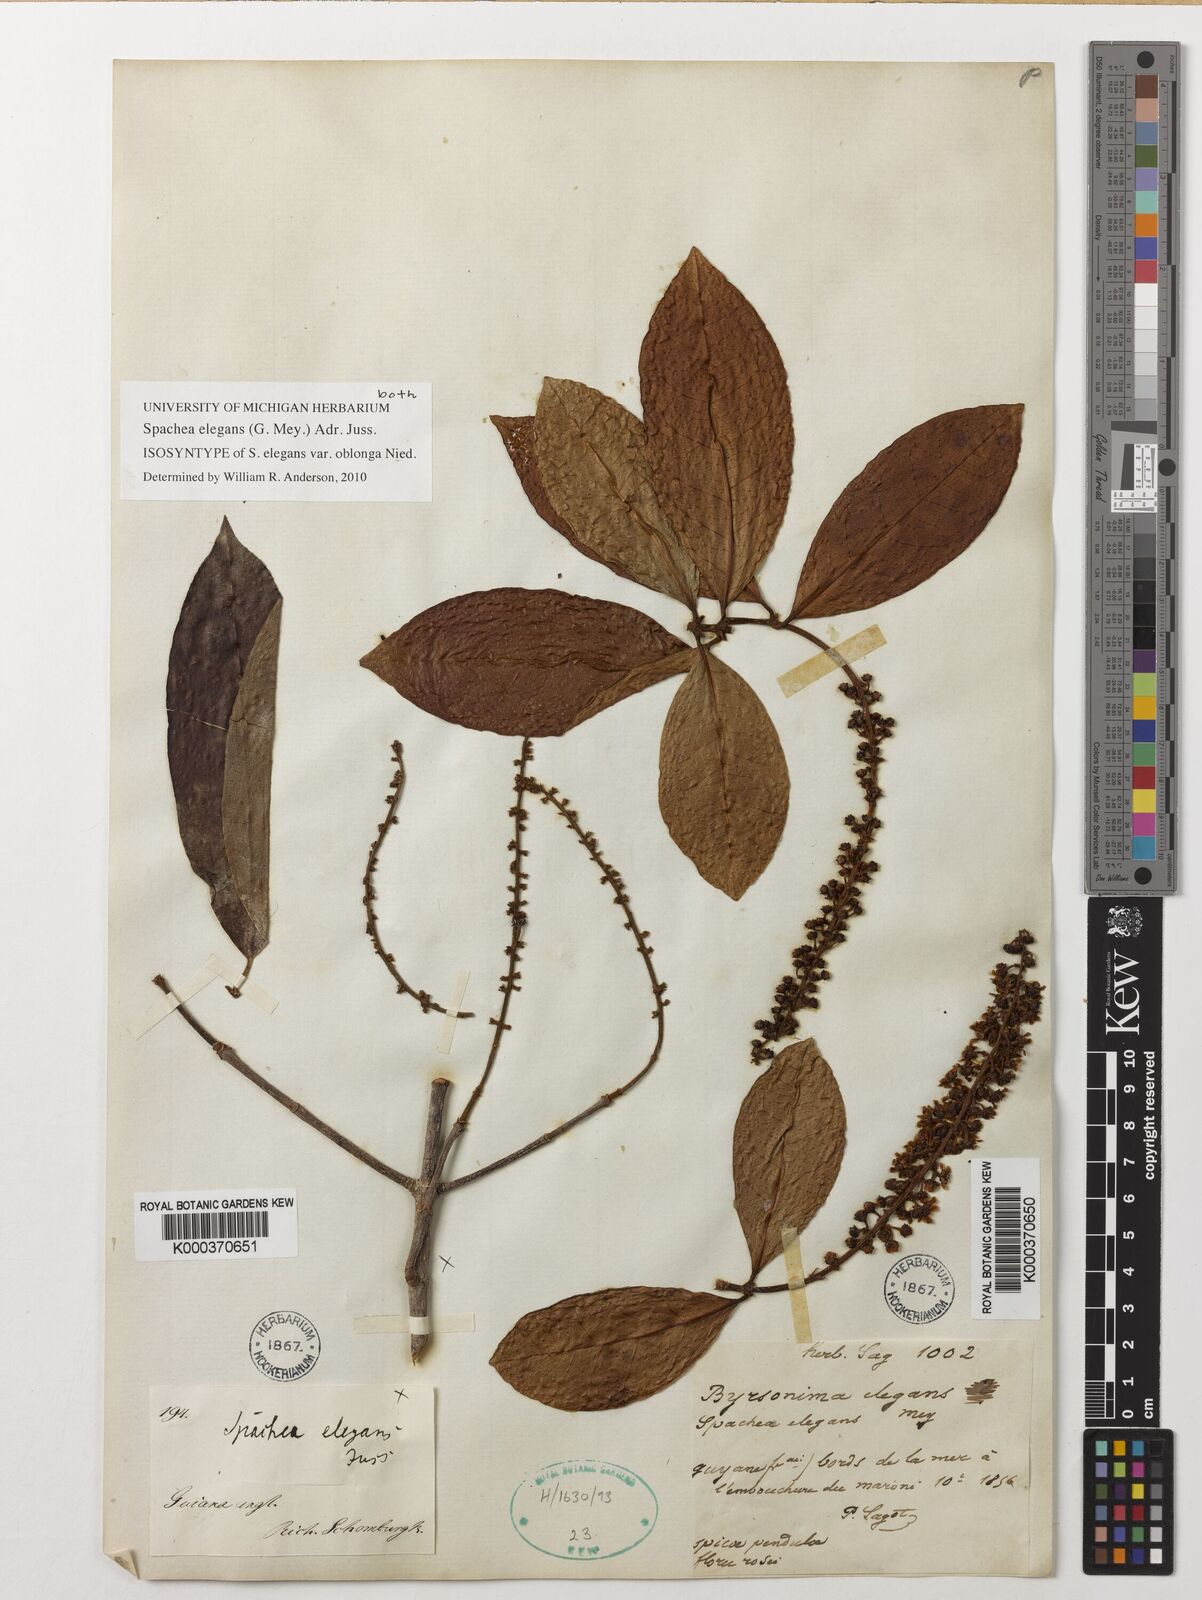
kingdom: Plantae
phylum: Tracheophyta
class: Magnoliopsida
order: Malpighiales
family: Malpighiaceae
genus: Spachea
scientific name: Spachea elegans
